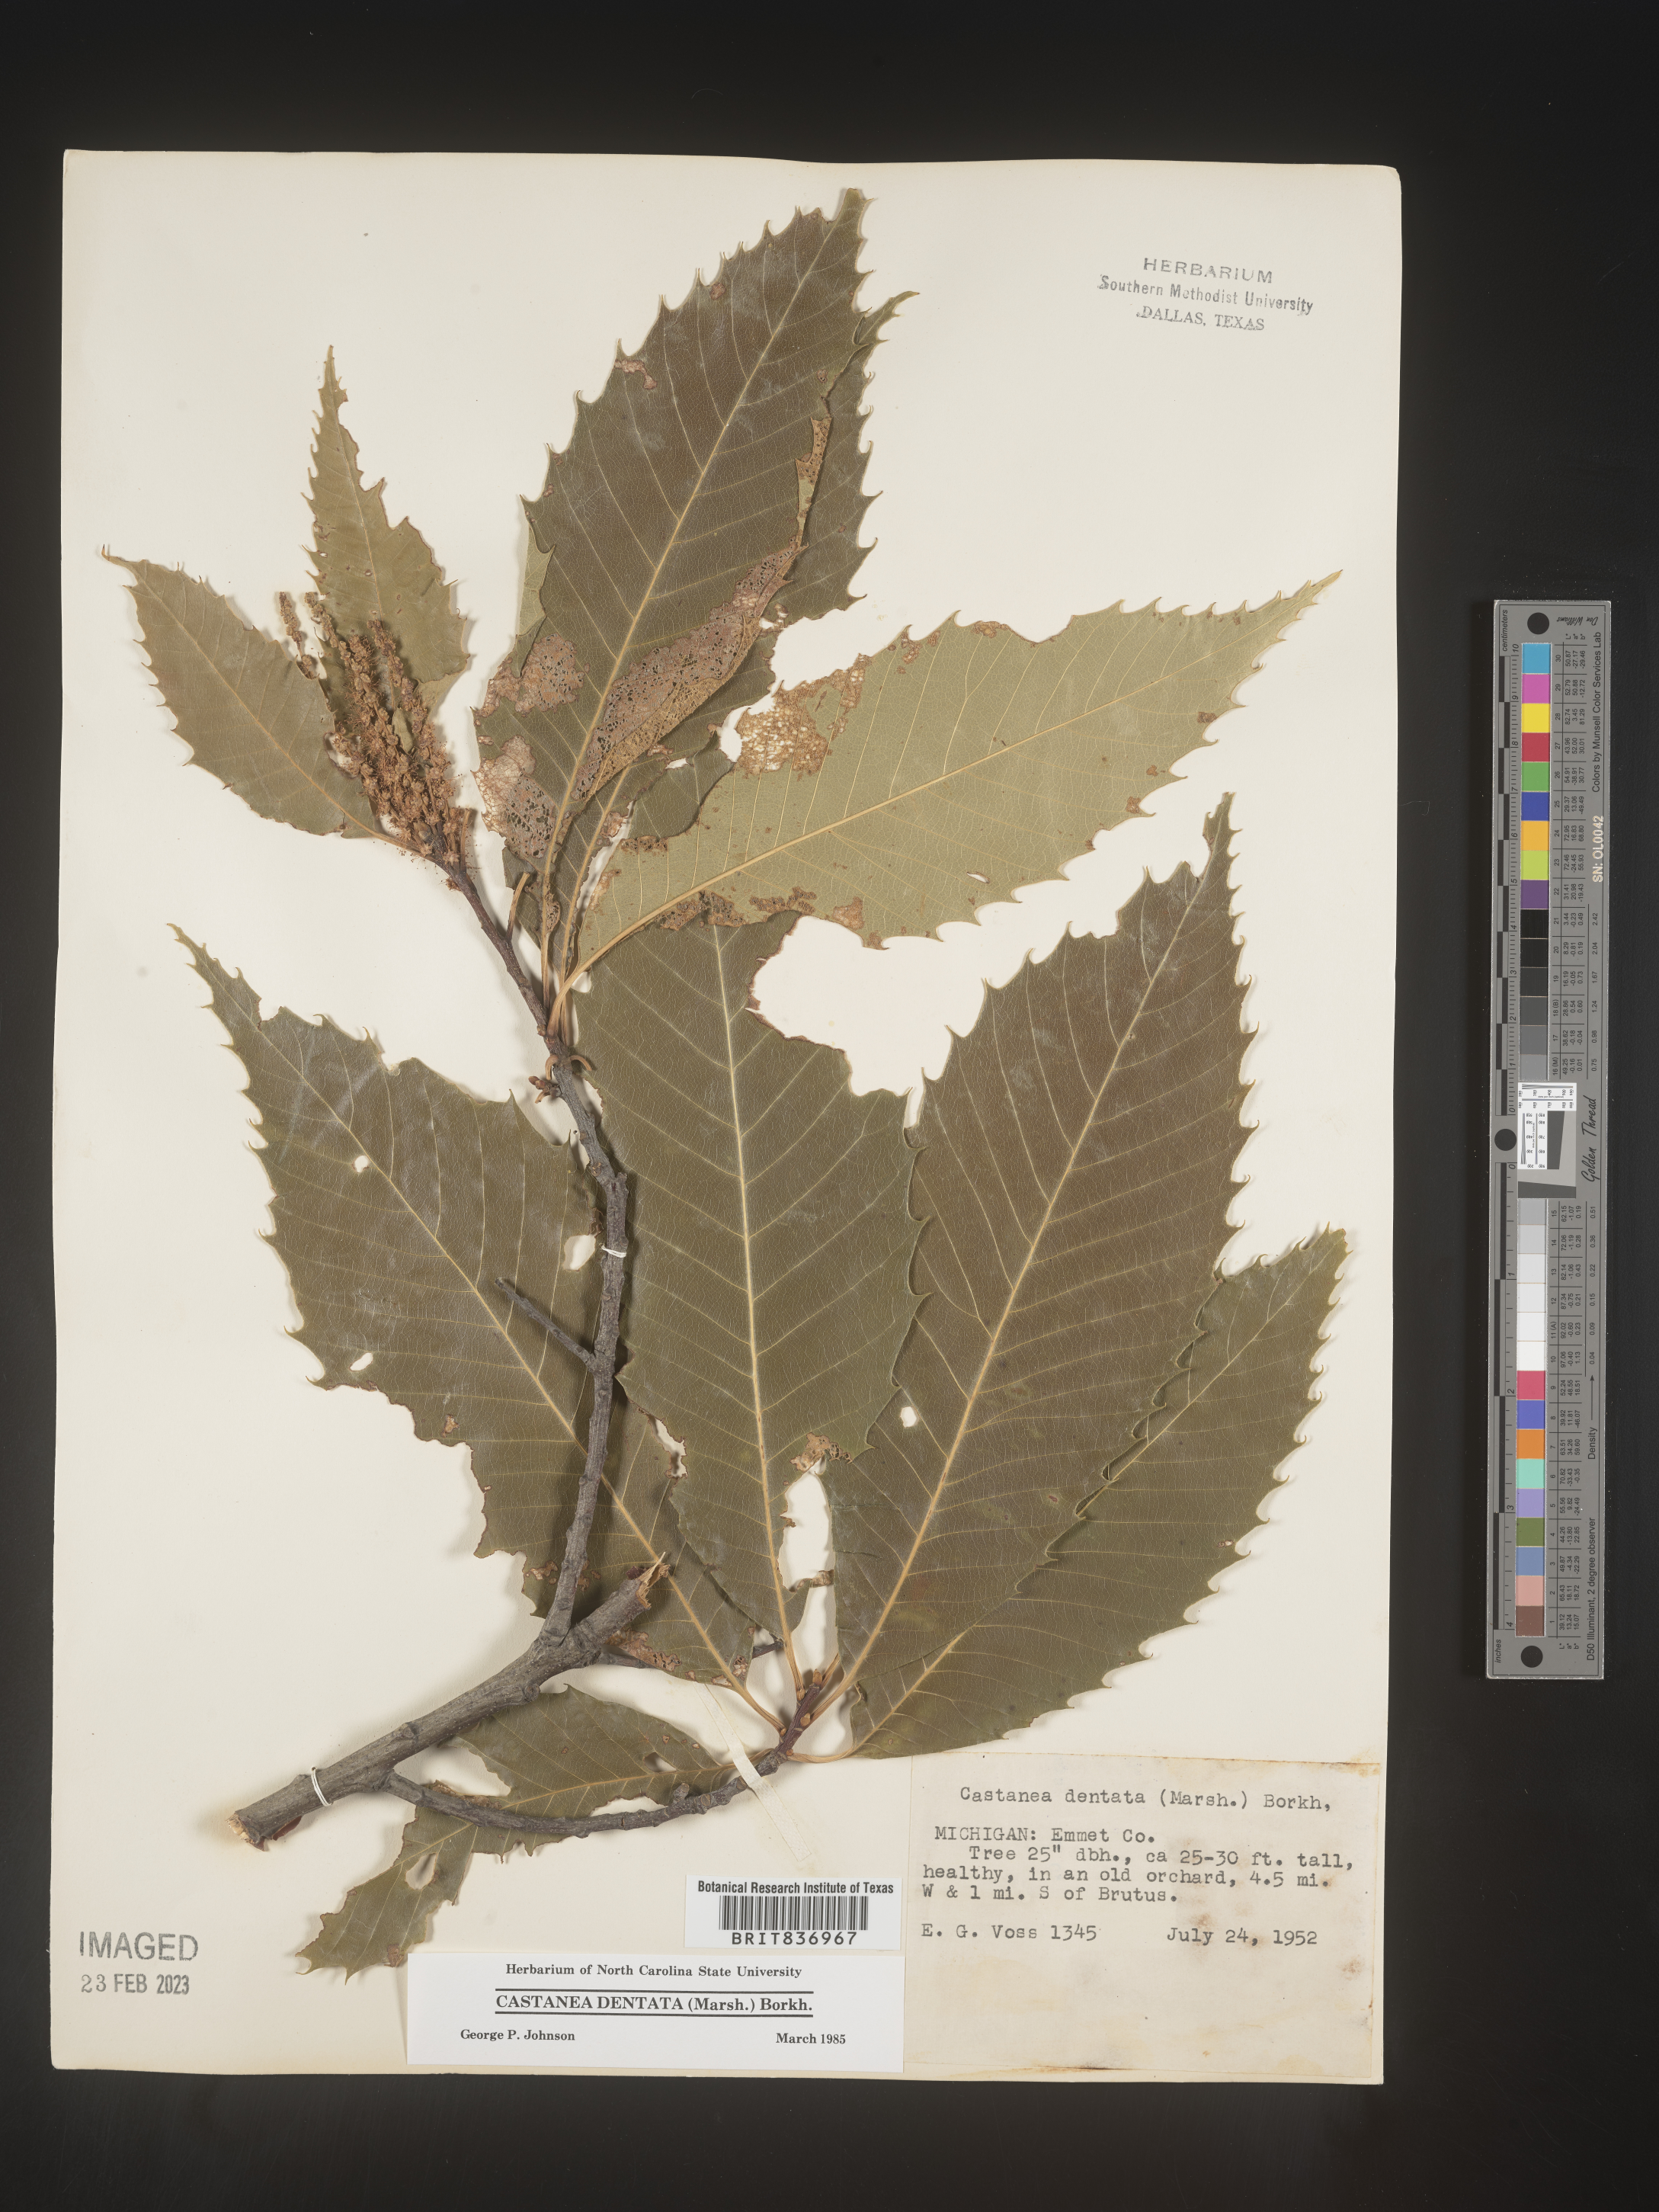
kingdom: Plantae
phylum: Tracheophyta
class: Magnoliopsida
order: Fagales
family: Fagaceae
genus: Castanea
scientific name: Castanea dentata
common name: American chestnut
